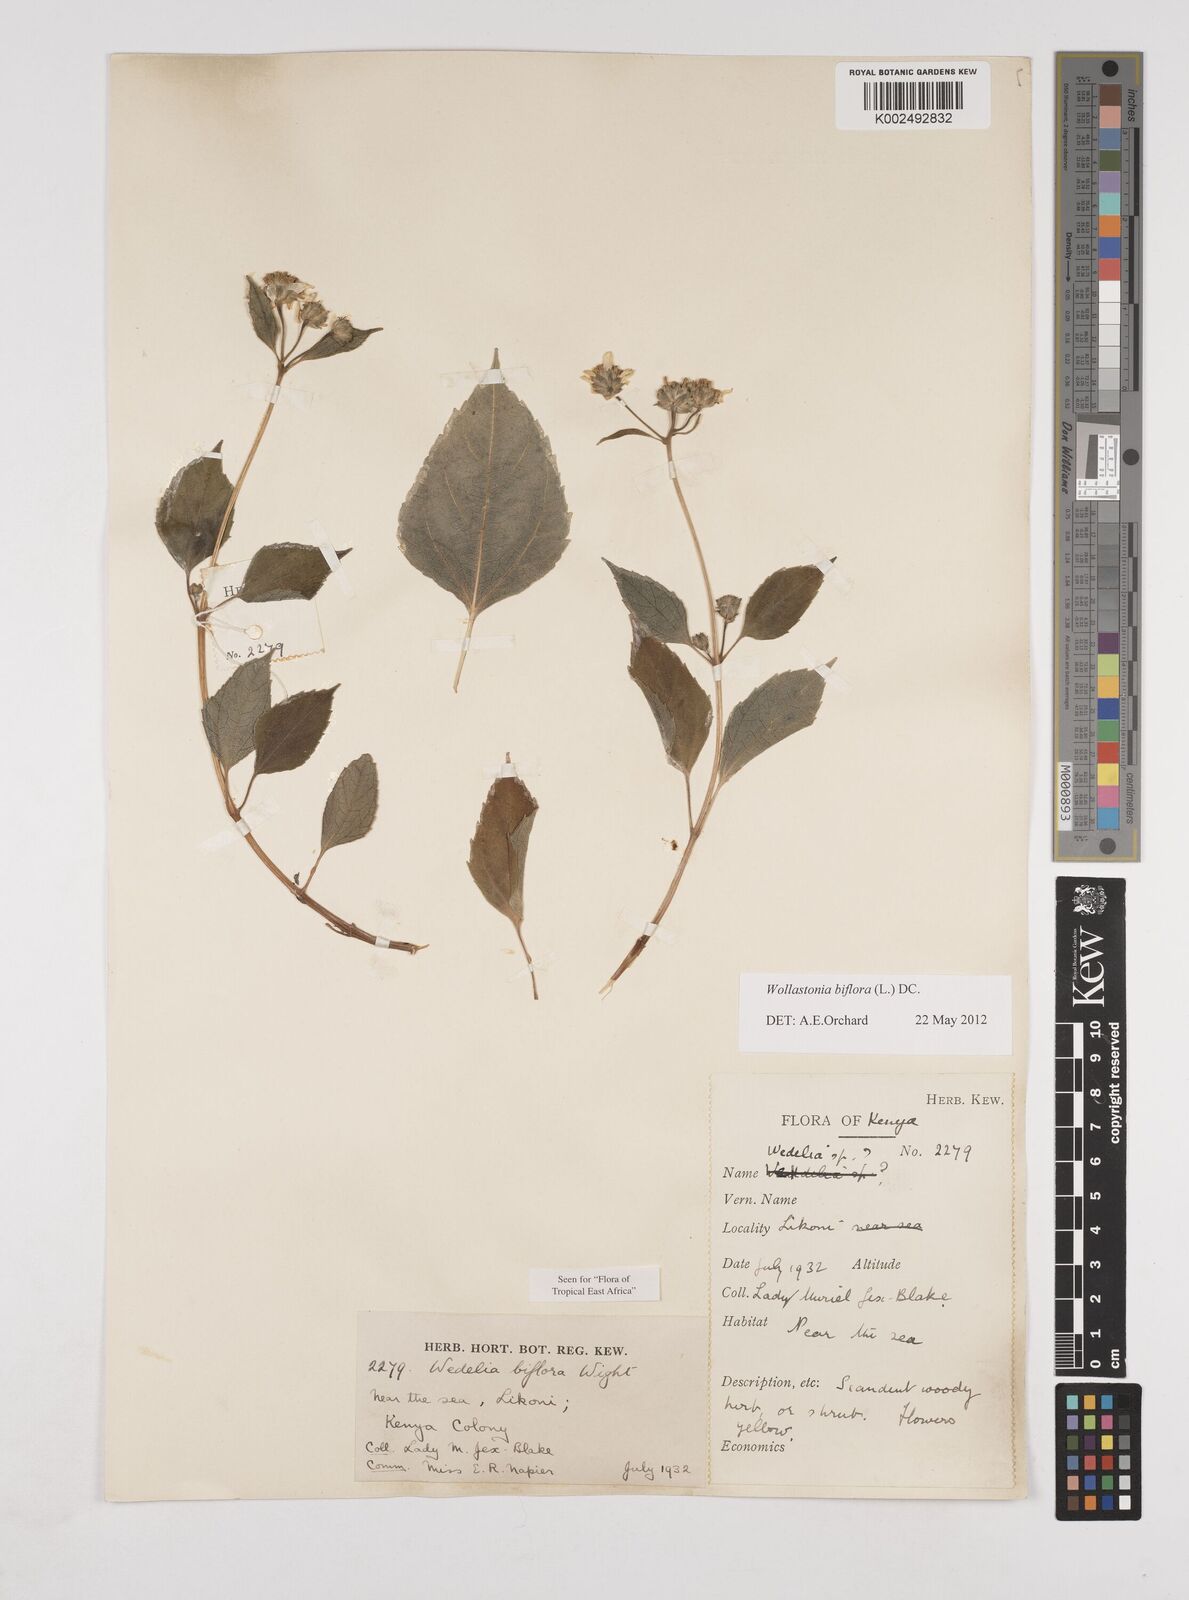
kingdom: Plantae
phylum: Tracheophyta
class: Magnoliopsida
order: Asterales
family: Asteraceae
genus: Wollastonia
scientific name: Wollastonia biflora
